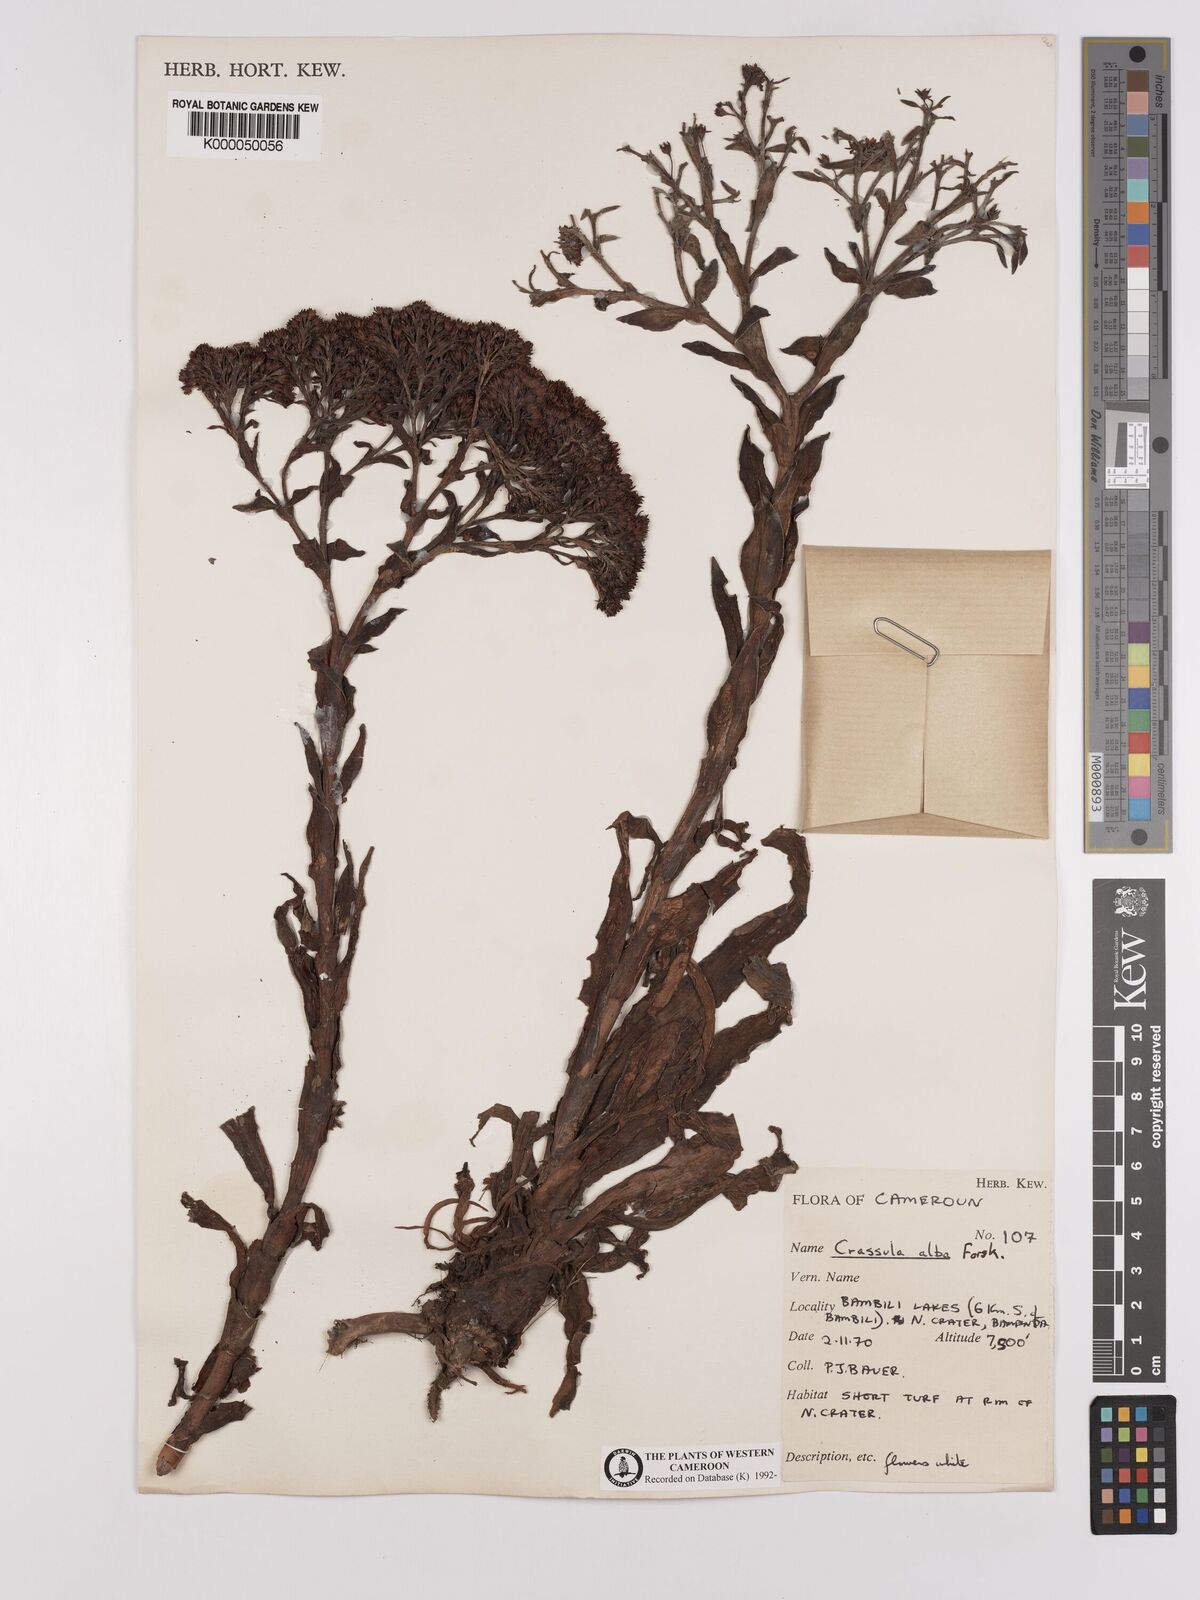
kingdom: Plantae
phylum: Tracheophyta
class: Magnoliopsida
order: Saxifragales
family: Crassulaceae
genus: Crassula
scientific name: Crassula vaginata
